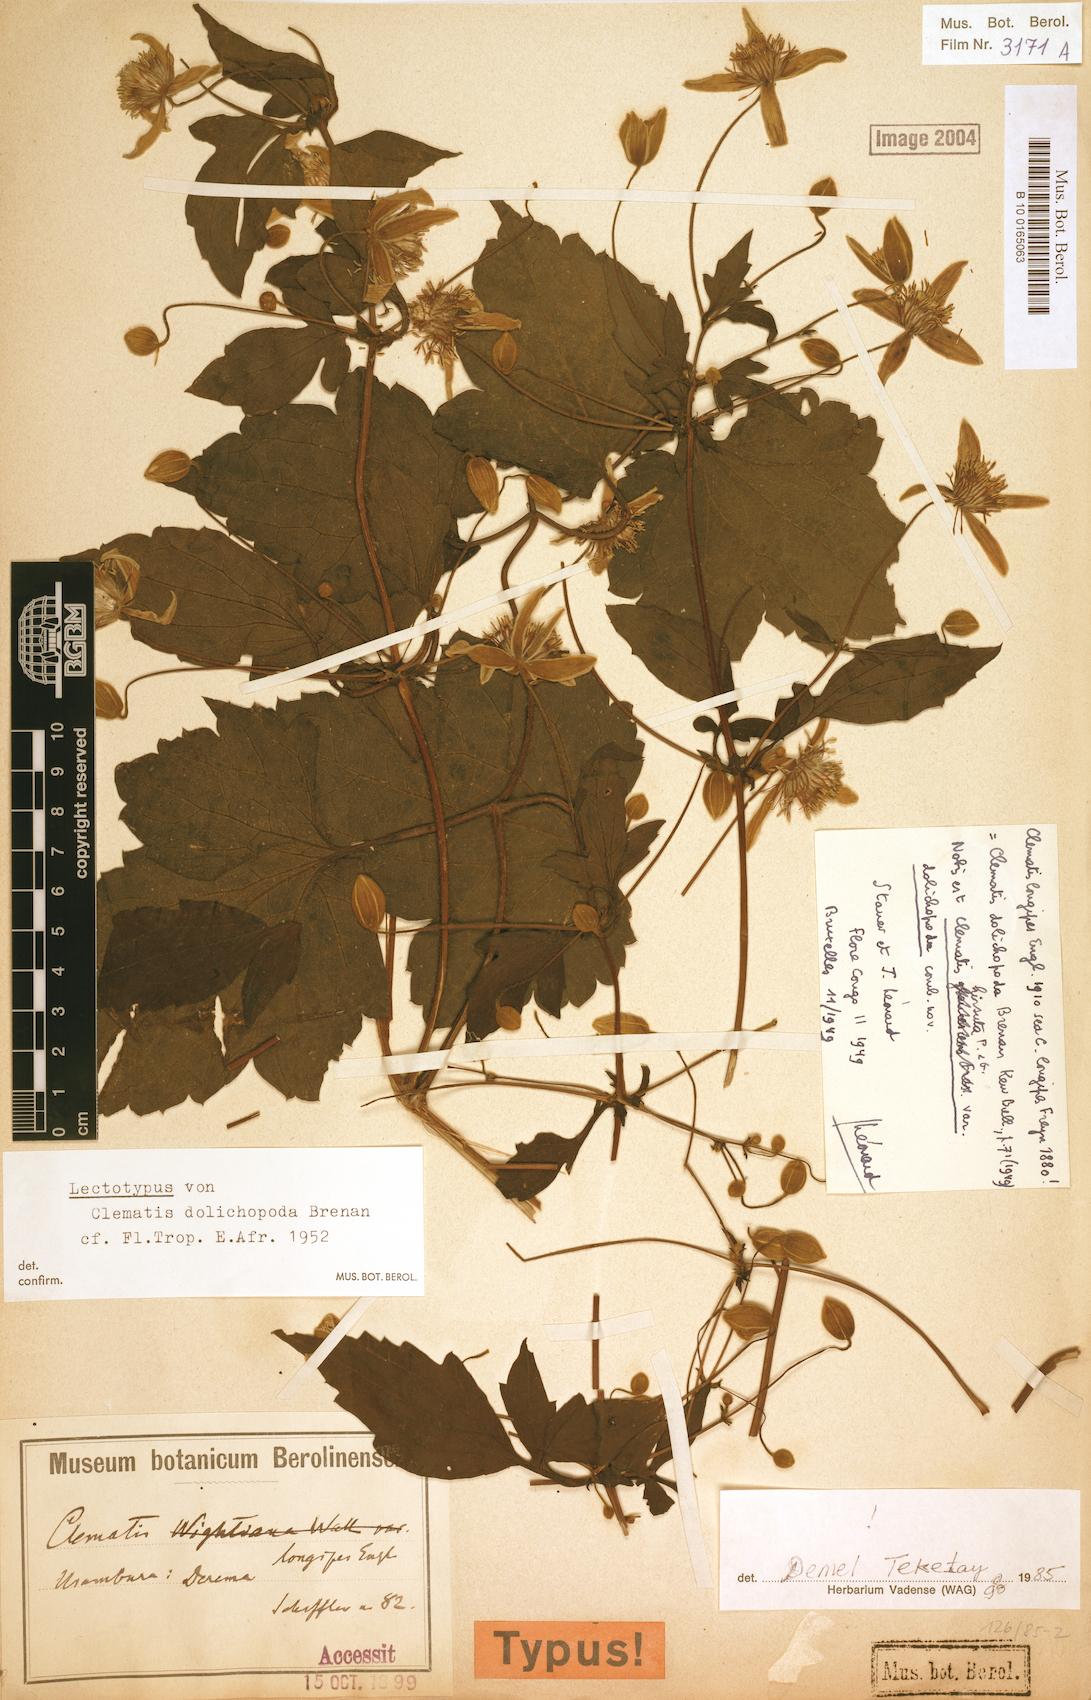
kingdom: Plantae
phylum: Tracheophyta
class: Magnoliopsida
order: Ranunculales
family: Ranunculaceae
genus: Clematis
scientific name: Clematis hirsuta
